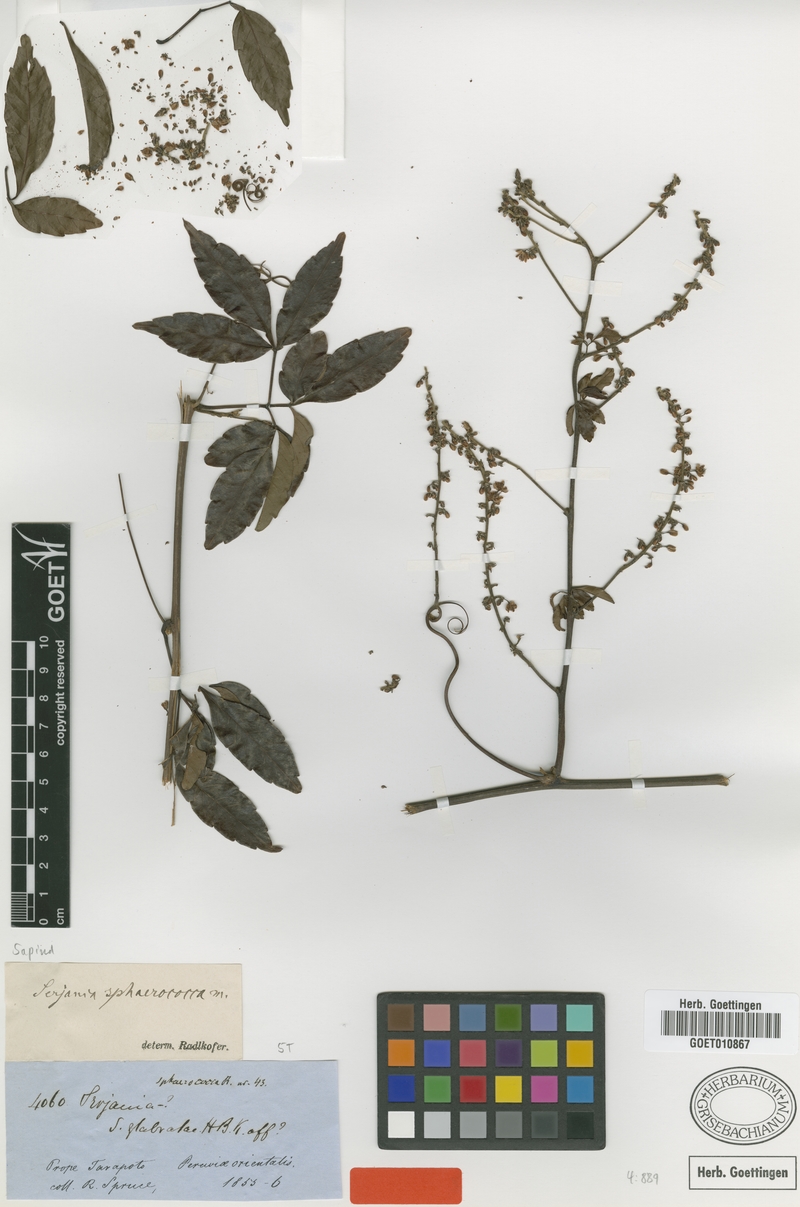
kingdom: Plantae
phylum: Tracheophyta
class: Magnoliopsida
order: Sapindales
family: Sapindaceae
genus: Serjania
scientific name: Serjania sphaerococca
